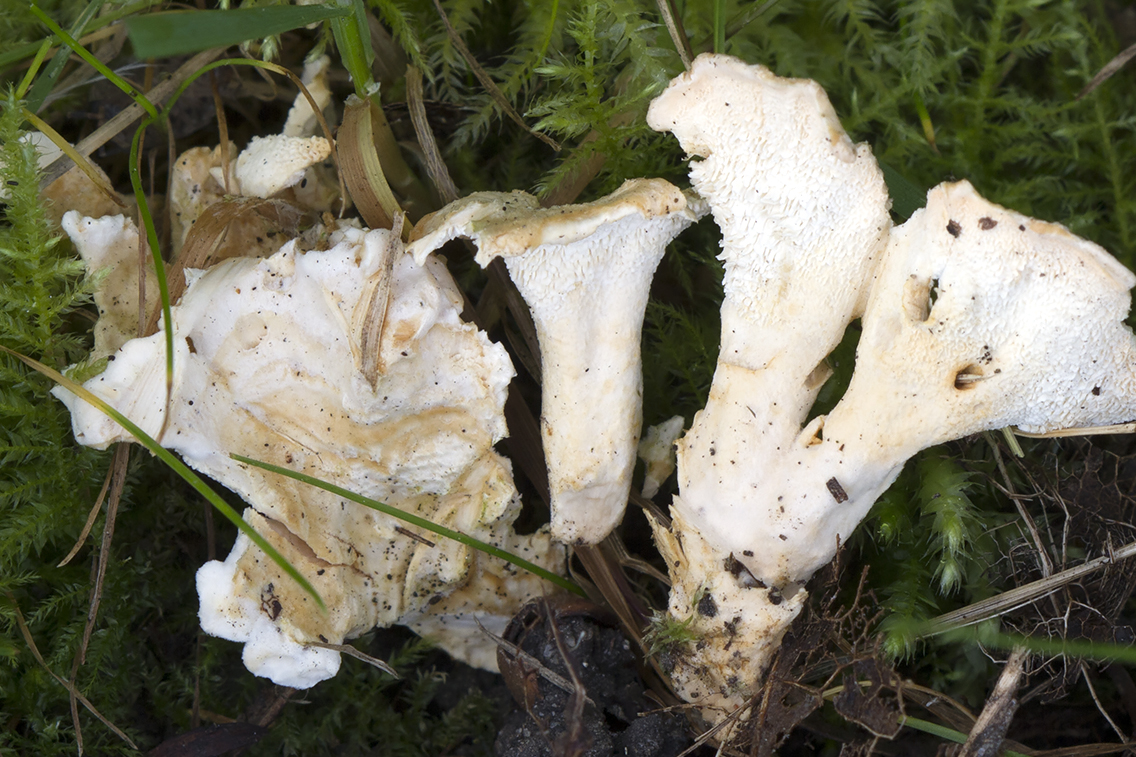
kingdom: Fungi
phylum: Basidiomycota
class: Agaricomycetes
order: Cantharellales
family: Hydnaceae
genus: Sistotrema
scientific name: Sistotrema confluens
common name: stilket kroneskorpe
